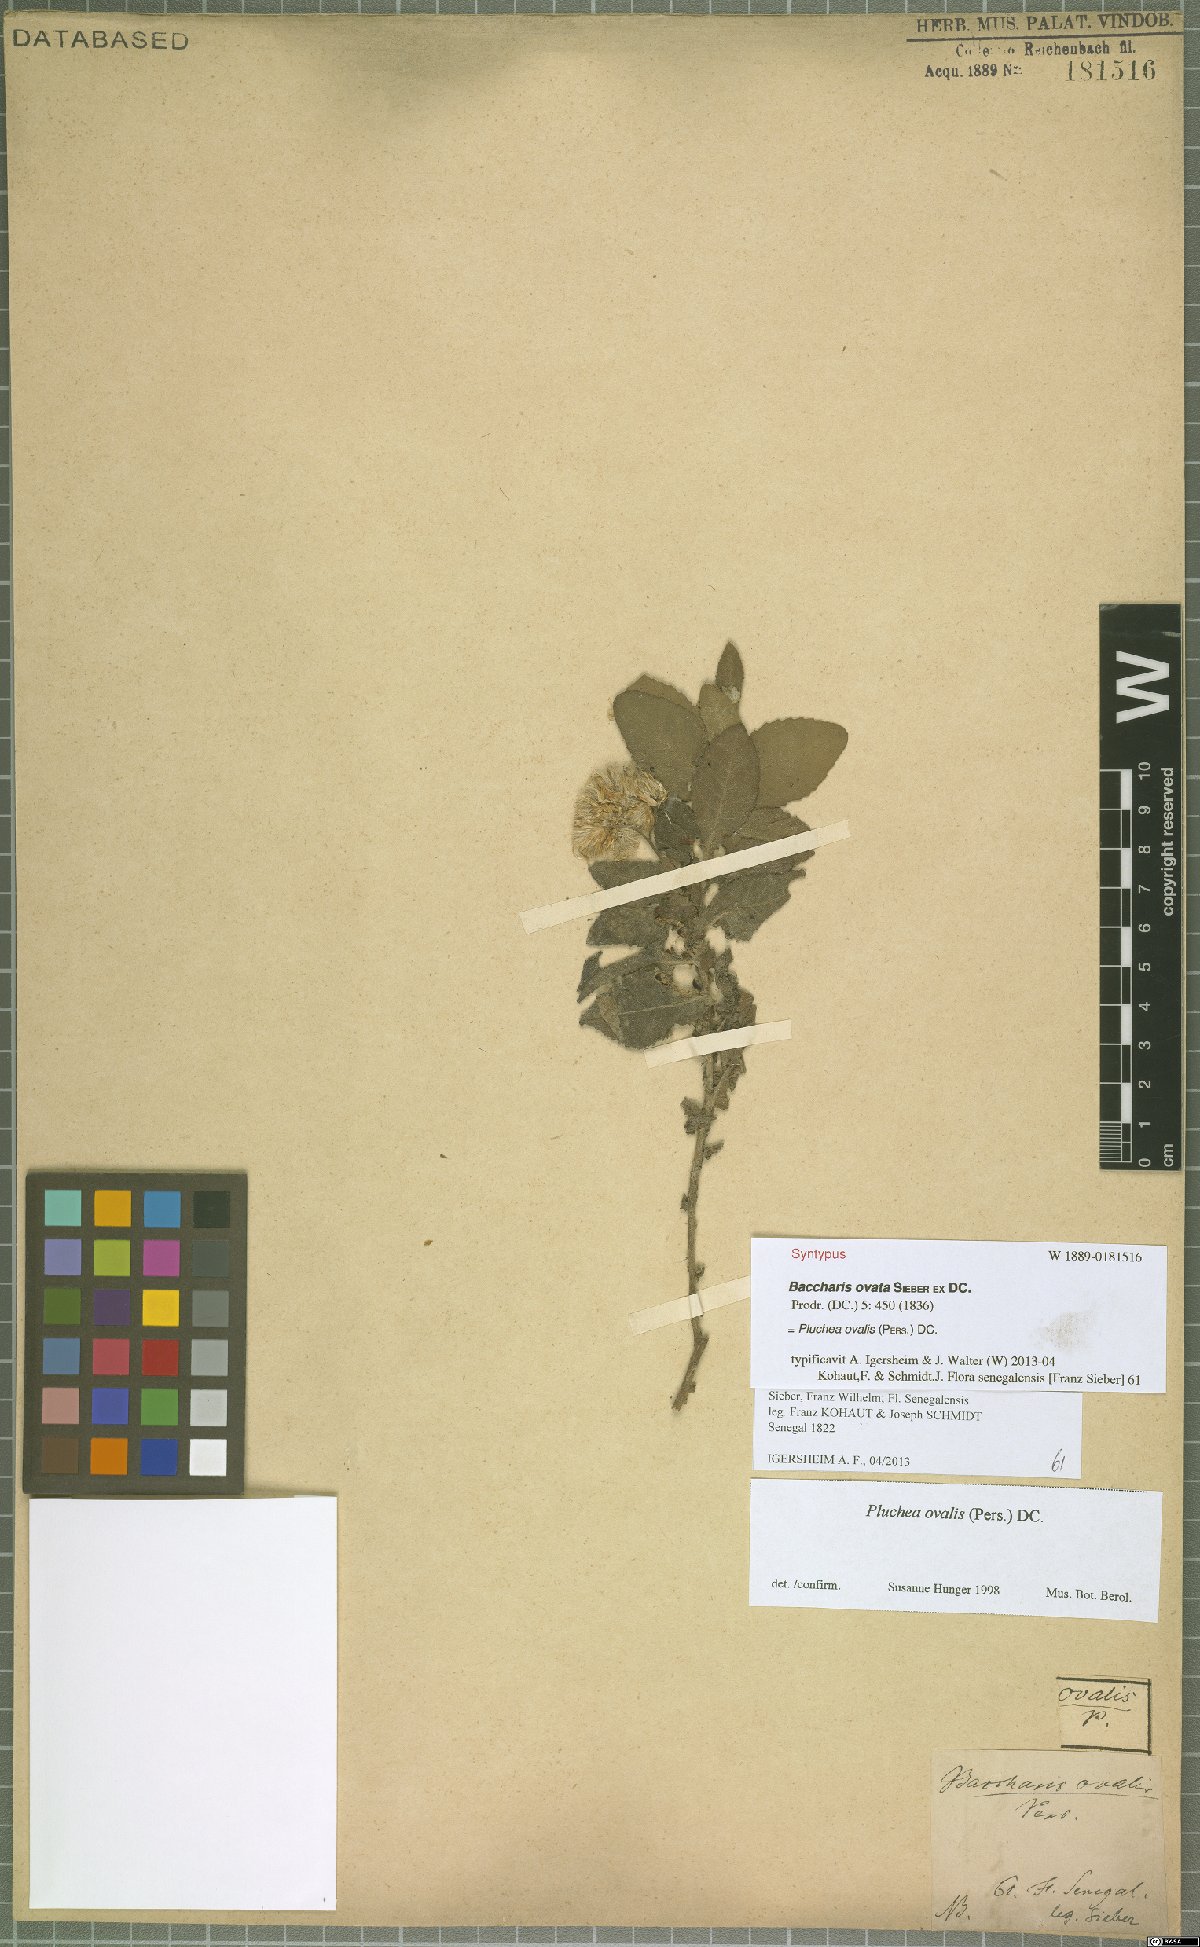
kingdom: Plantae
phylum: Tracheophyta
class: Magnoliopsida
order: Asterales
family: Asteraceae
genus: Pluchea
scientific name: Pluchea ovalis
